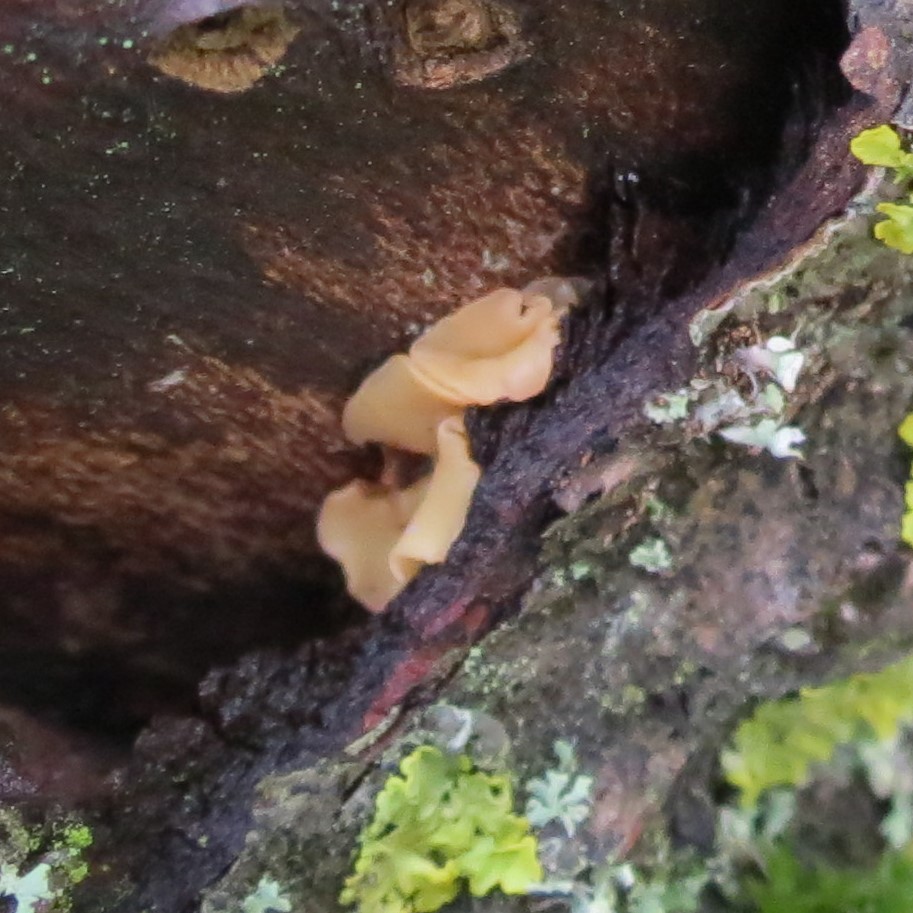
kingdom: Fungi
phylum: Ascomycota
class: Leotiomycetes
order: Helotiales
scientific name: Helotiales
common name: stilkskiveordenen
